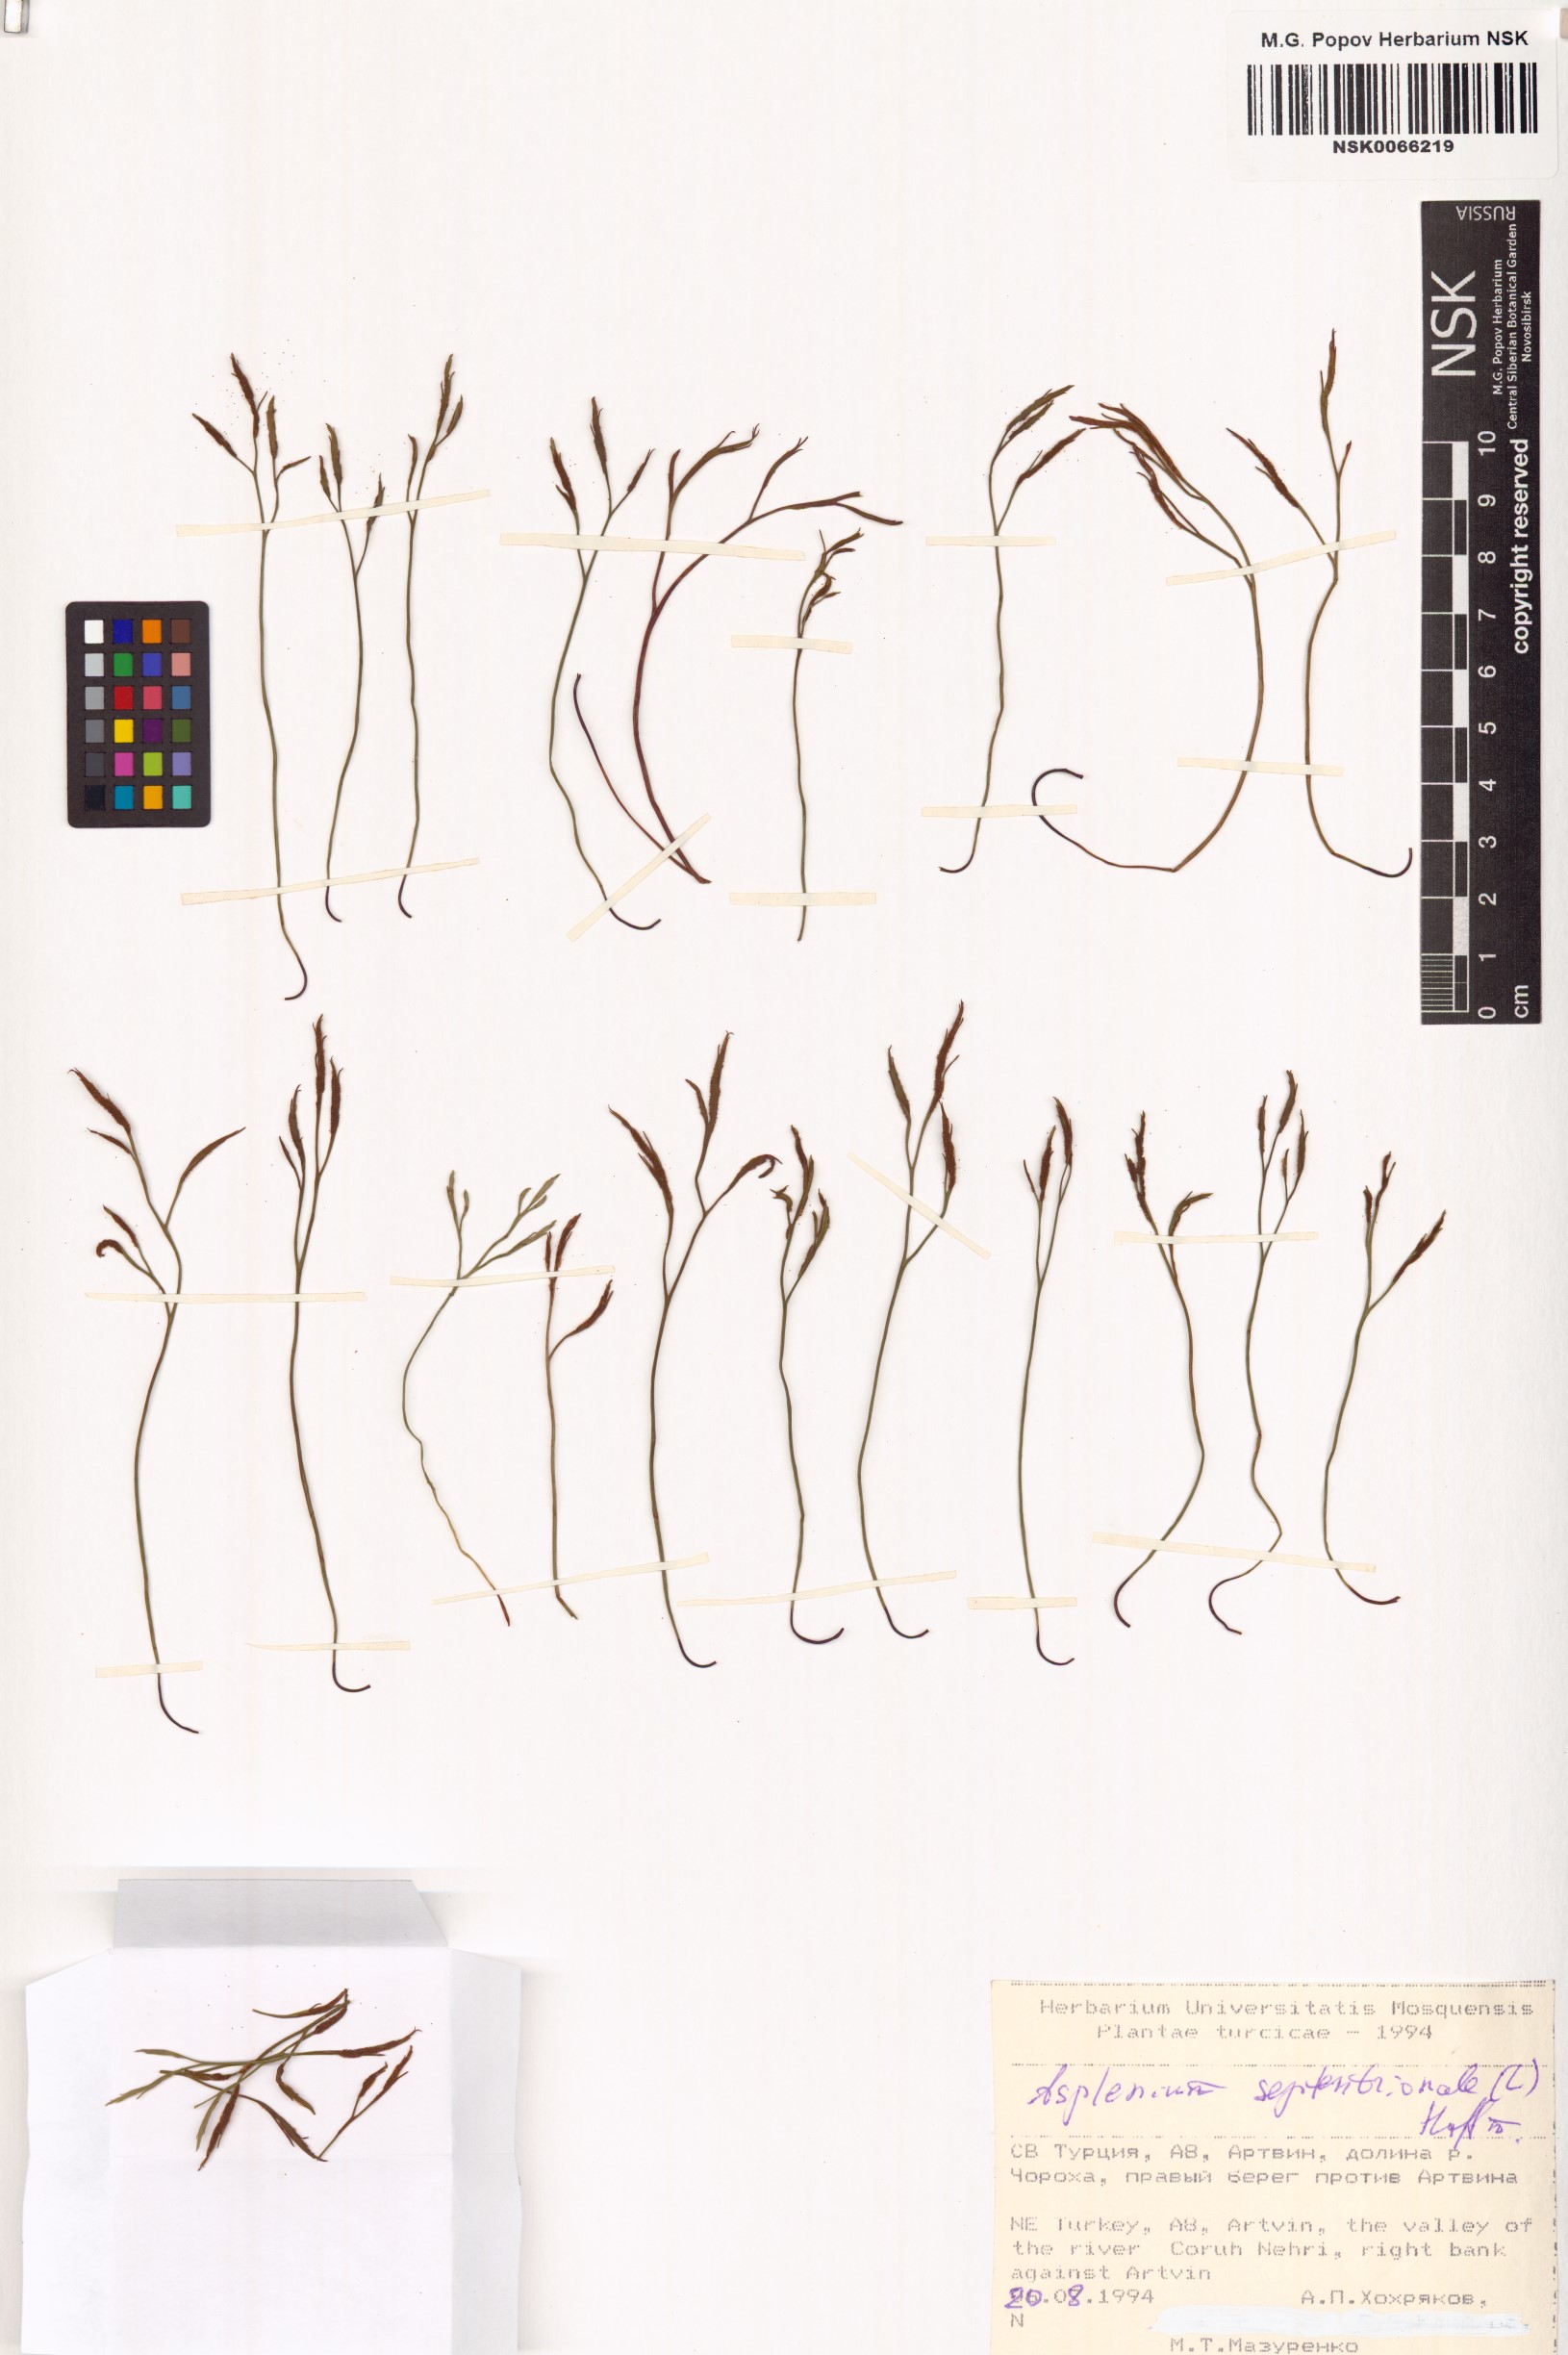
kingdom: Plantae
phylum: Tracheophyta
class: Polypodiopsida
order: Polypodiales
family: Aspleniaceae
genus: Asplenium
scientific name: Asplenium septentrionale
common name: Forked spleenwort
